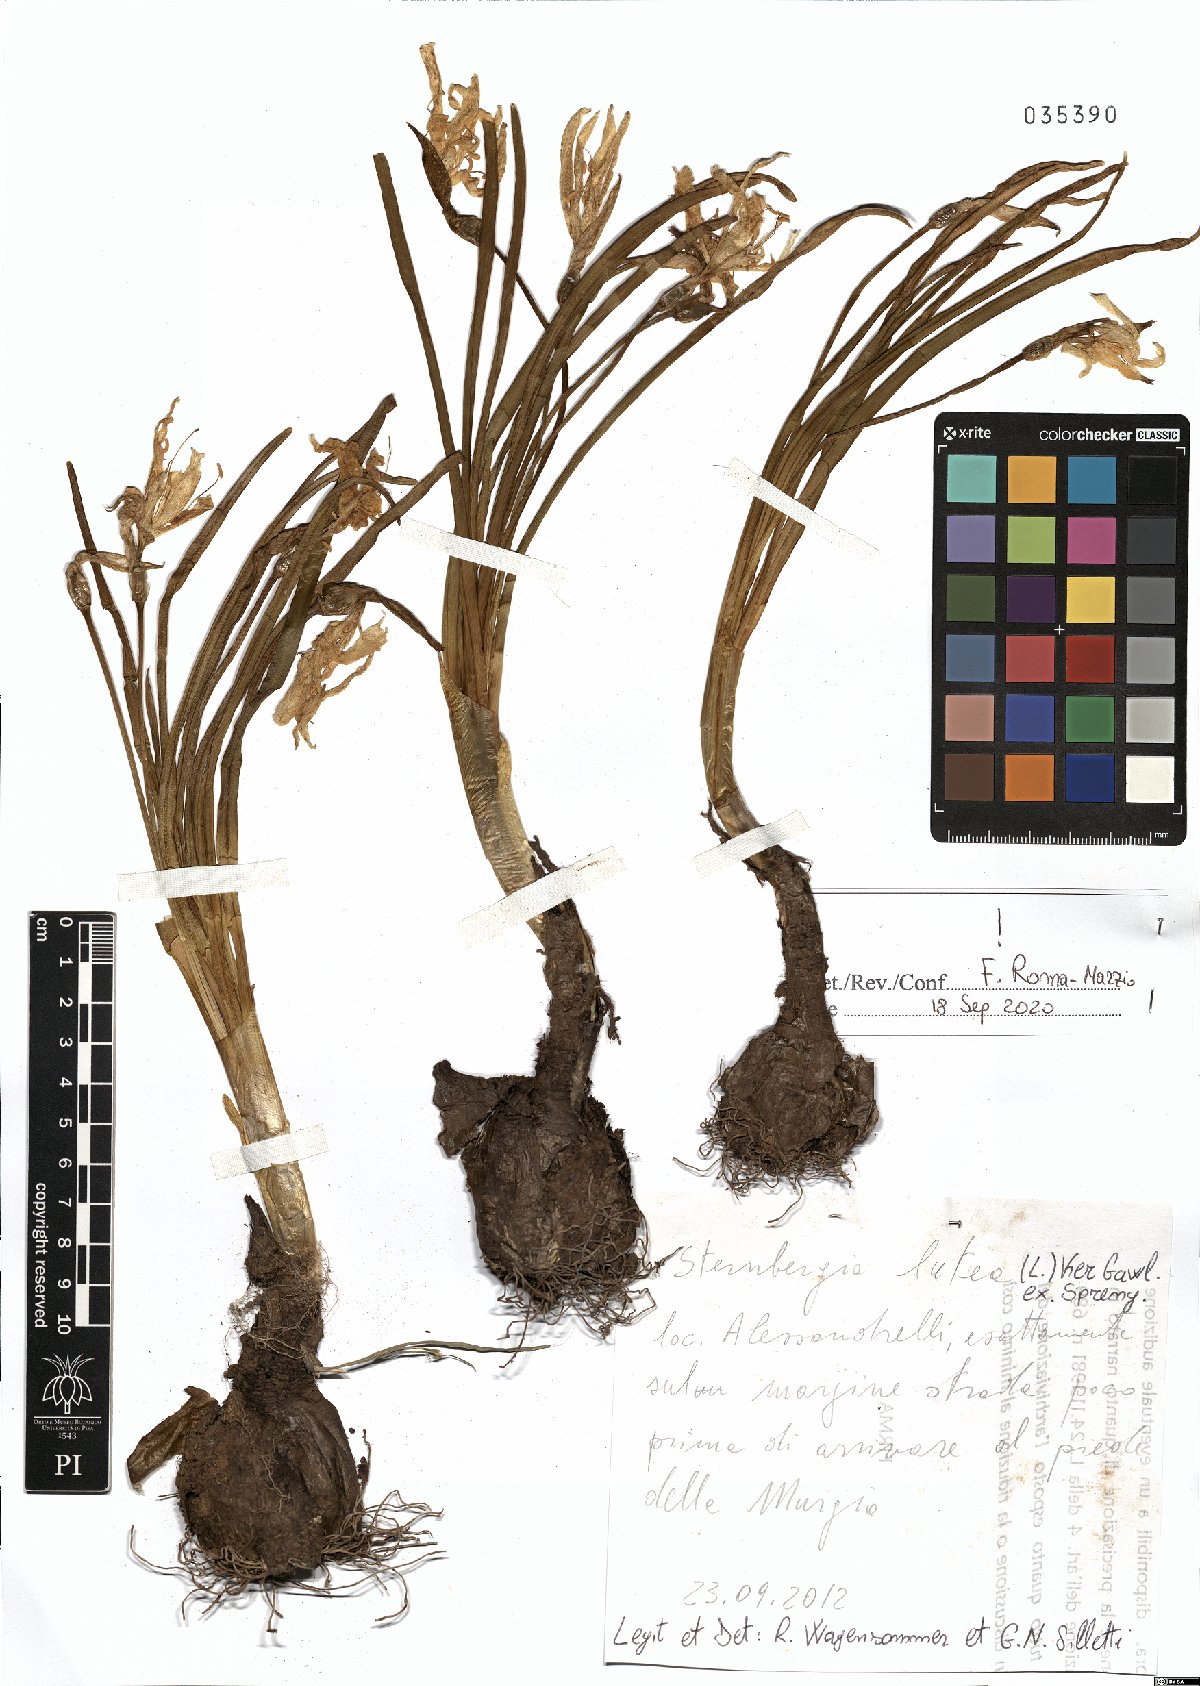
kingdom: Plantae
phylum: Tracheophyta
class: Liliopsida
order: Asparagales
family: Amaryllidaceae
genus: Sternbergia
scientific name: Sternbergia lutea
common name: Winter daffodil
